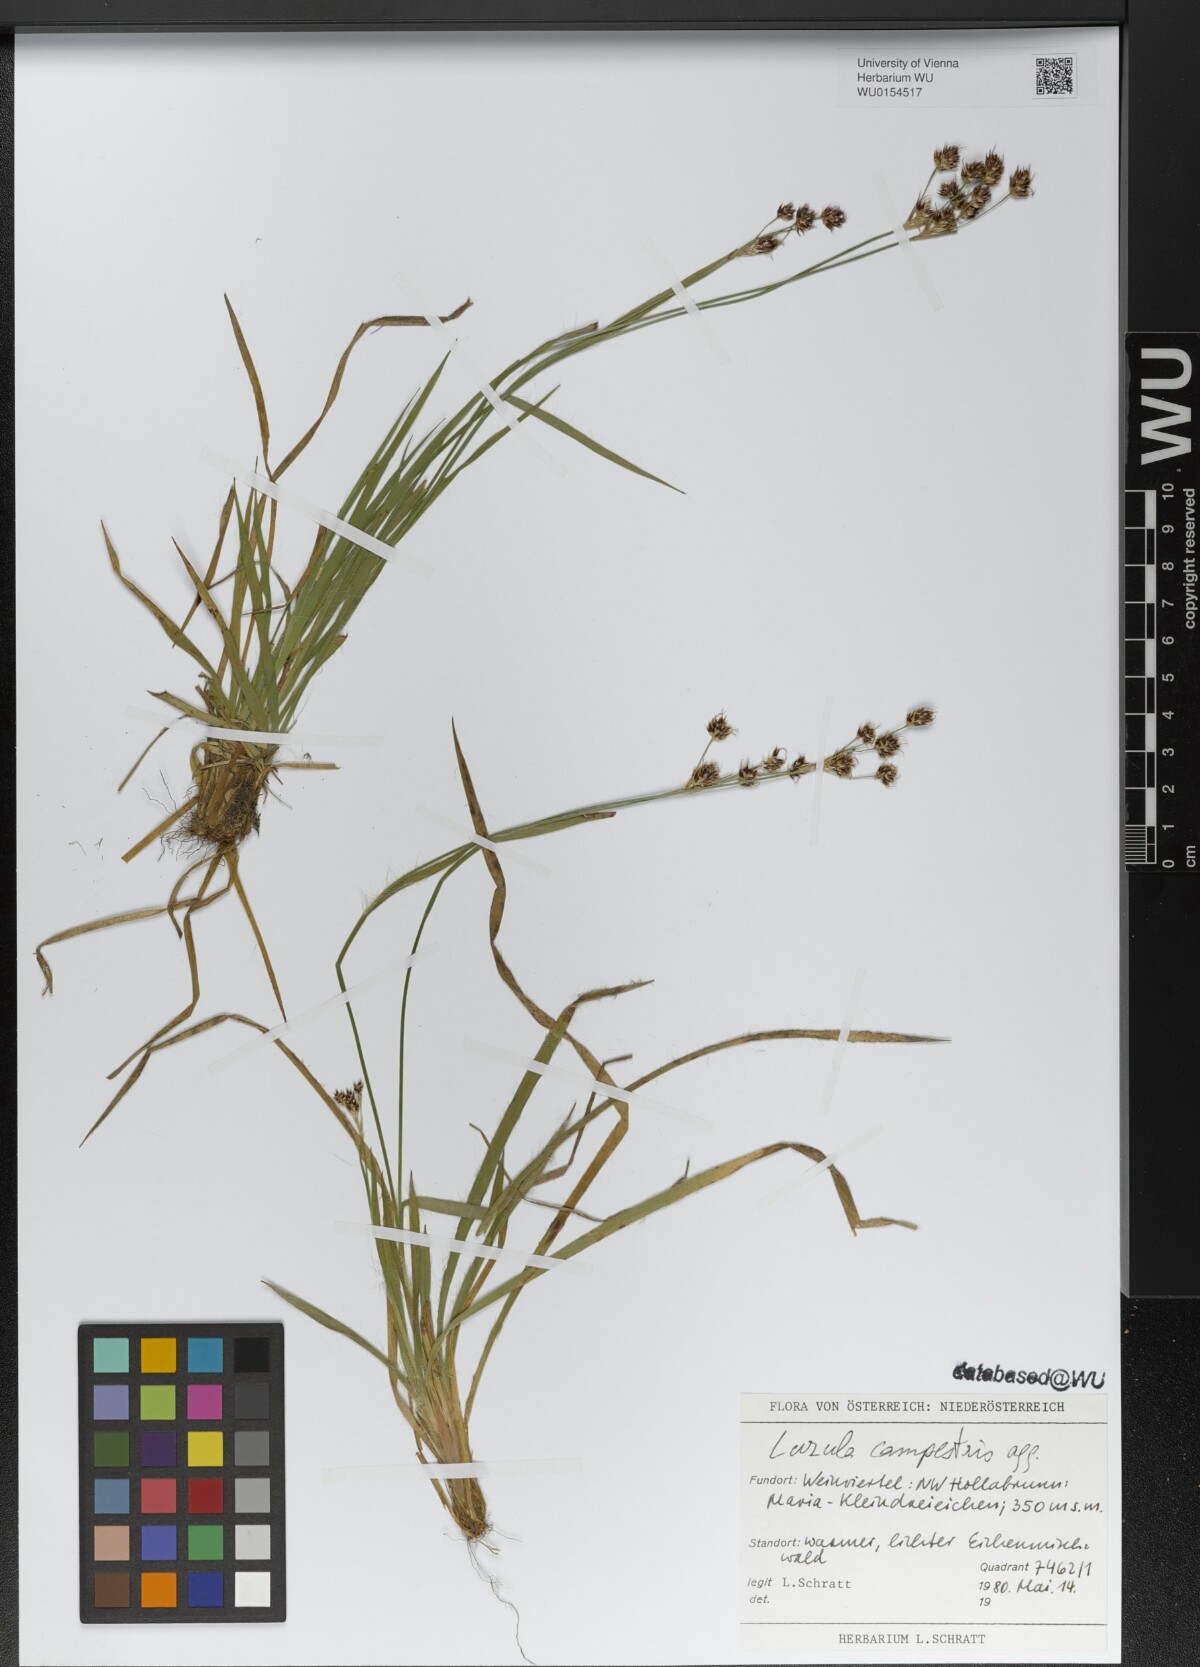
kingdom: Plantae
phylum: Tracheophyta
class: Liliopsida
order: Poales
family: Juncaceae
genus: Luzula
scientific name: Luzula campestris
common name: Field wood-rush
